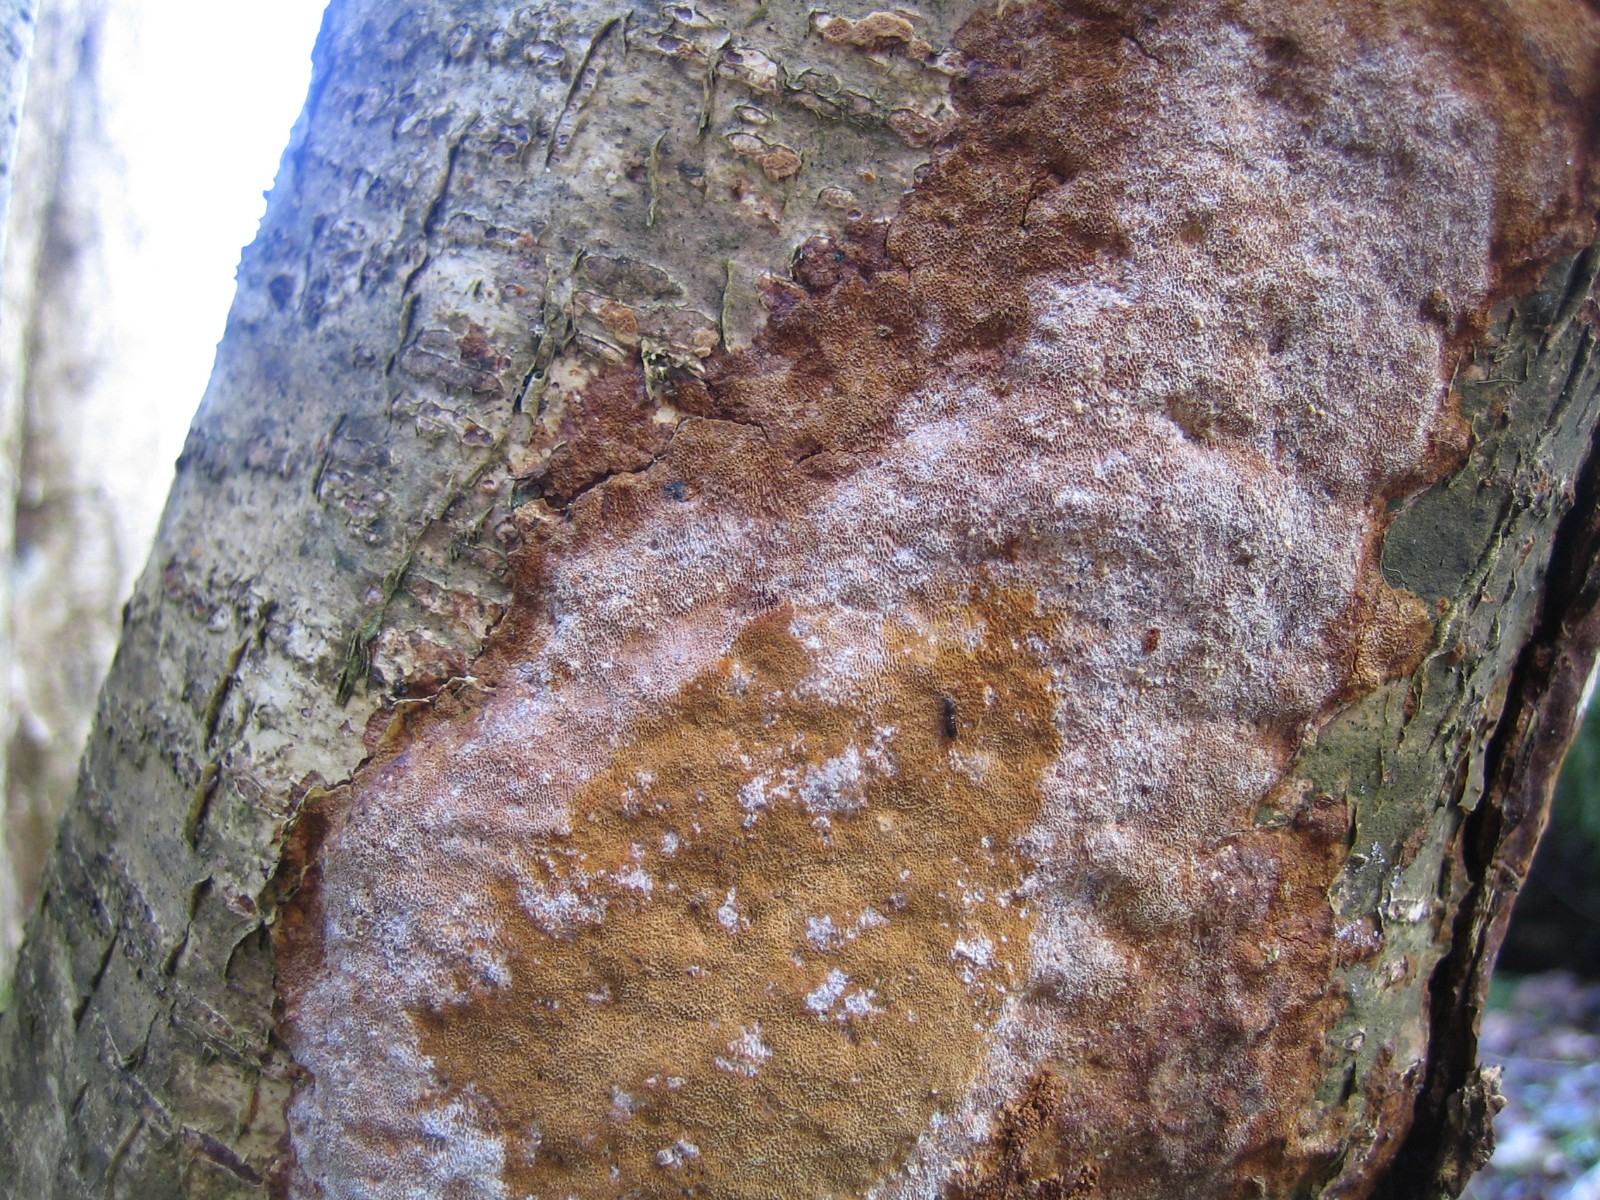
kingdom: Fungi
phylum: Basidiomycota
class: Agaricomycetes
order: Hymenochaetales
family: Hymenochaetaceae
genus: Fuscoporia
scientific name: Fuscoporia ferrea
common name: skorpe-ildporesvamp
